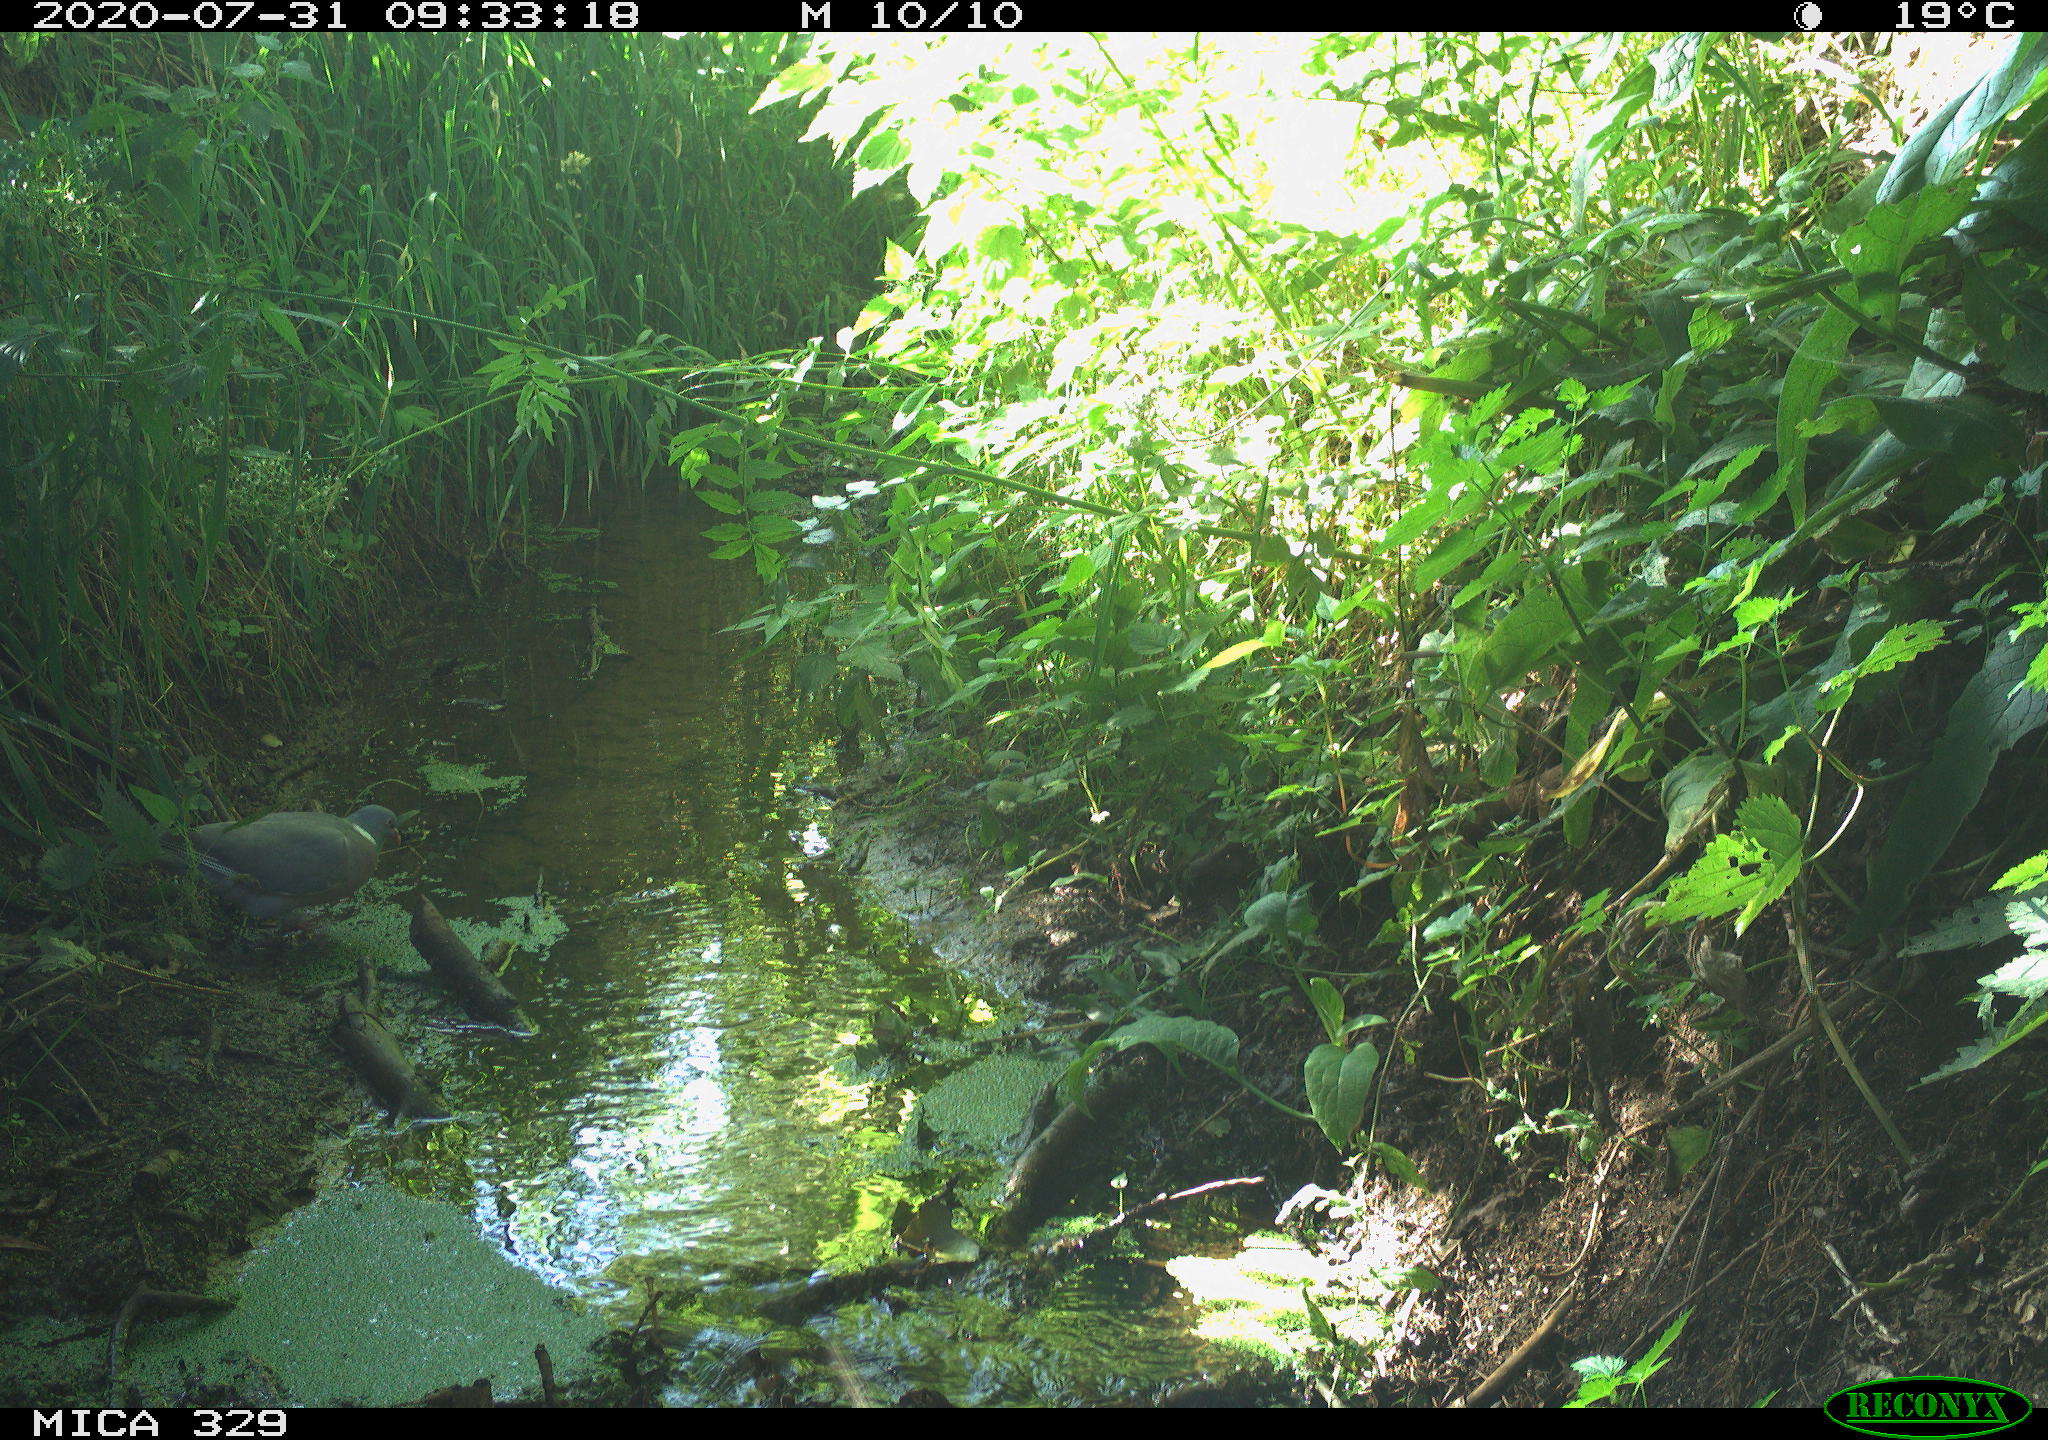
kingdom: Animalia
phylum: Chordata
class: Aves
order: Columbiformes
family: Columbidae
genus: Columba
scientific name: Columba palumbus
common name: Common wood pigeon
